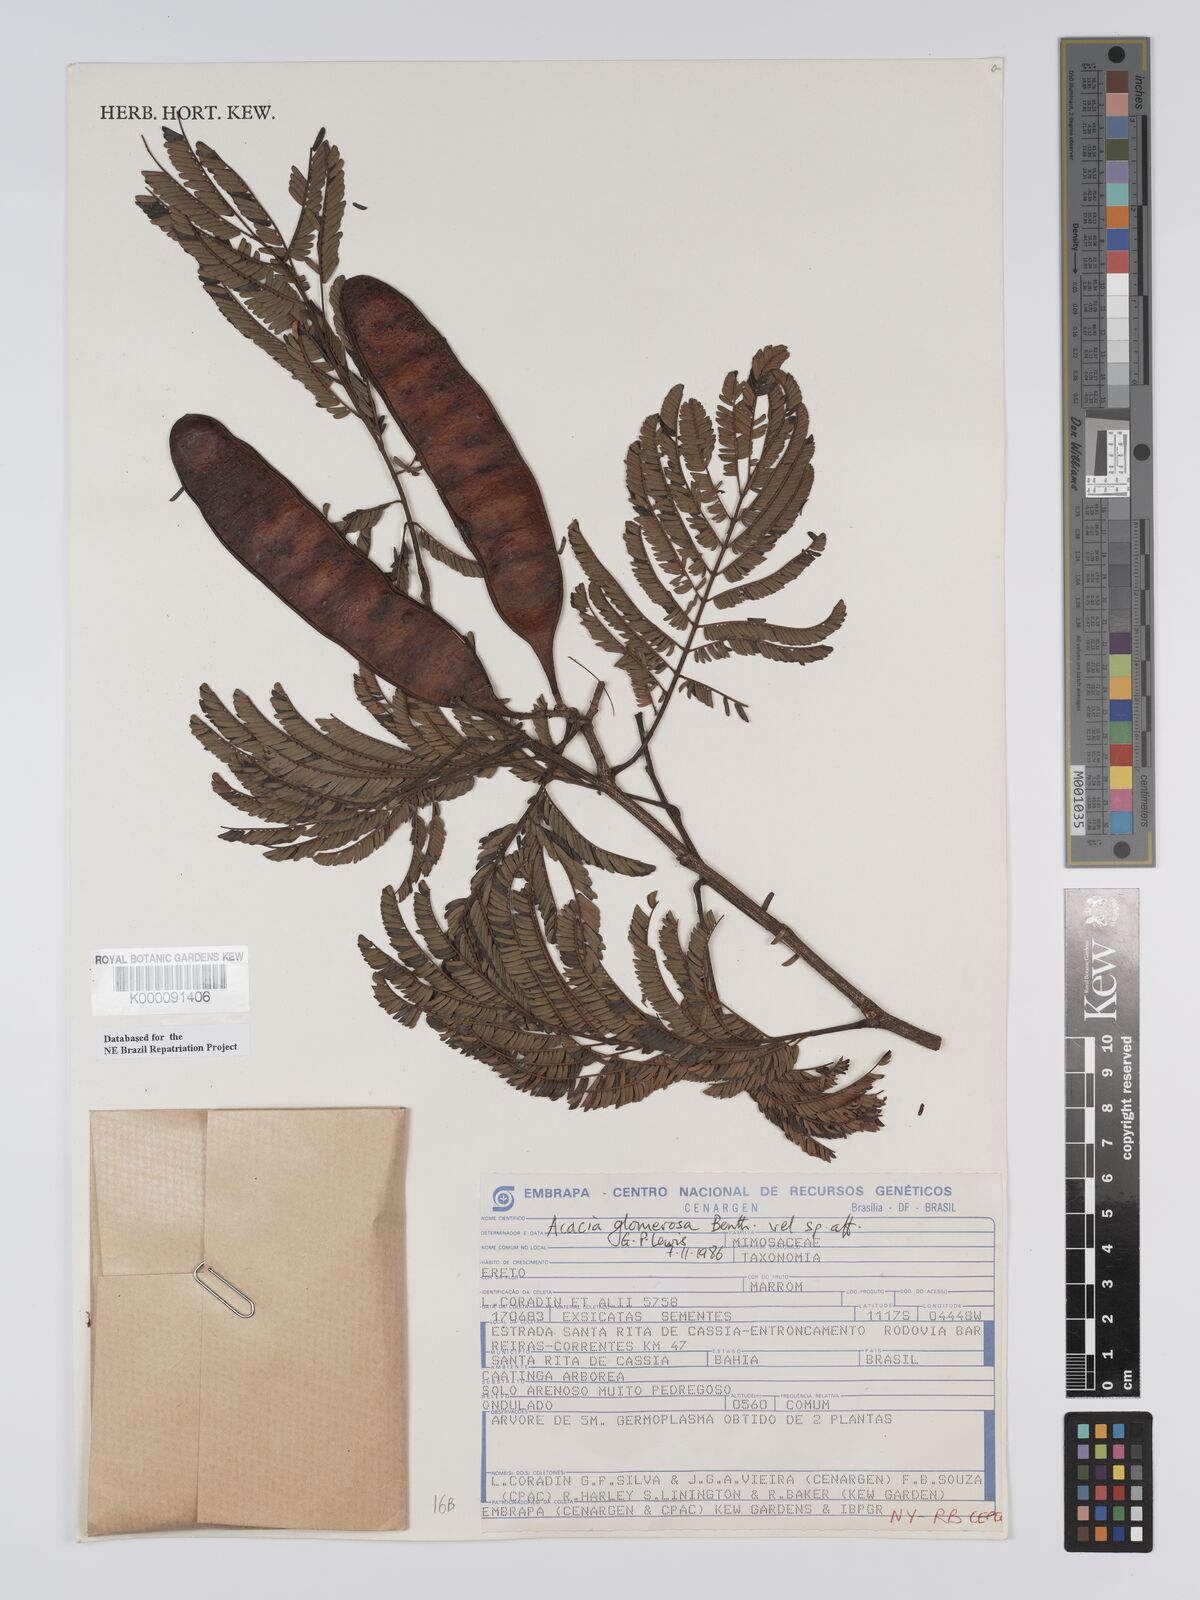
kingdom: Plantae
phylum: Tracheophyta
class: Magnoliopsida
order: Fabales
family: Fabaceae
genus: Senegalia
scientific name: Senegalia polyphylla
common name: White-tamarind
